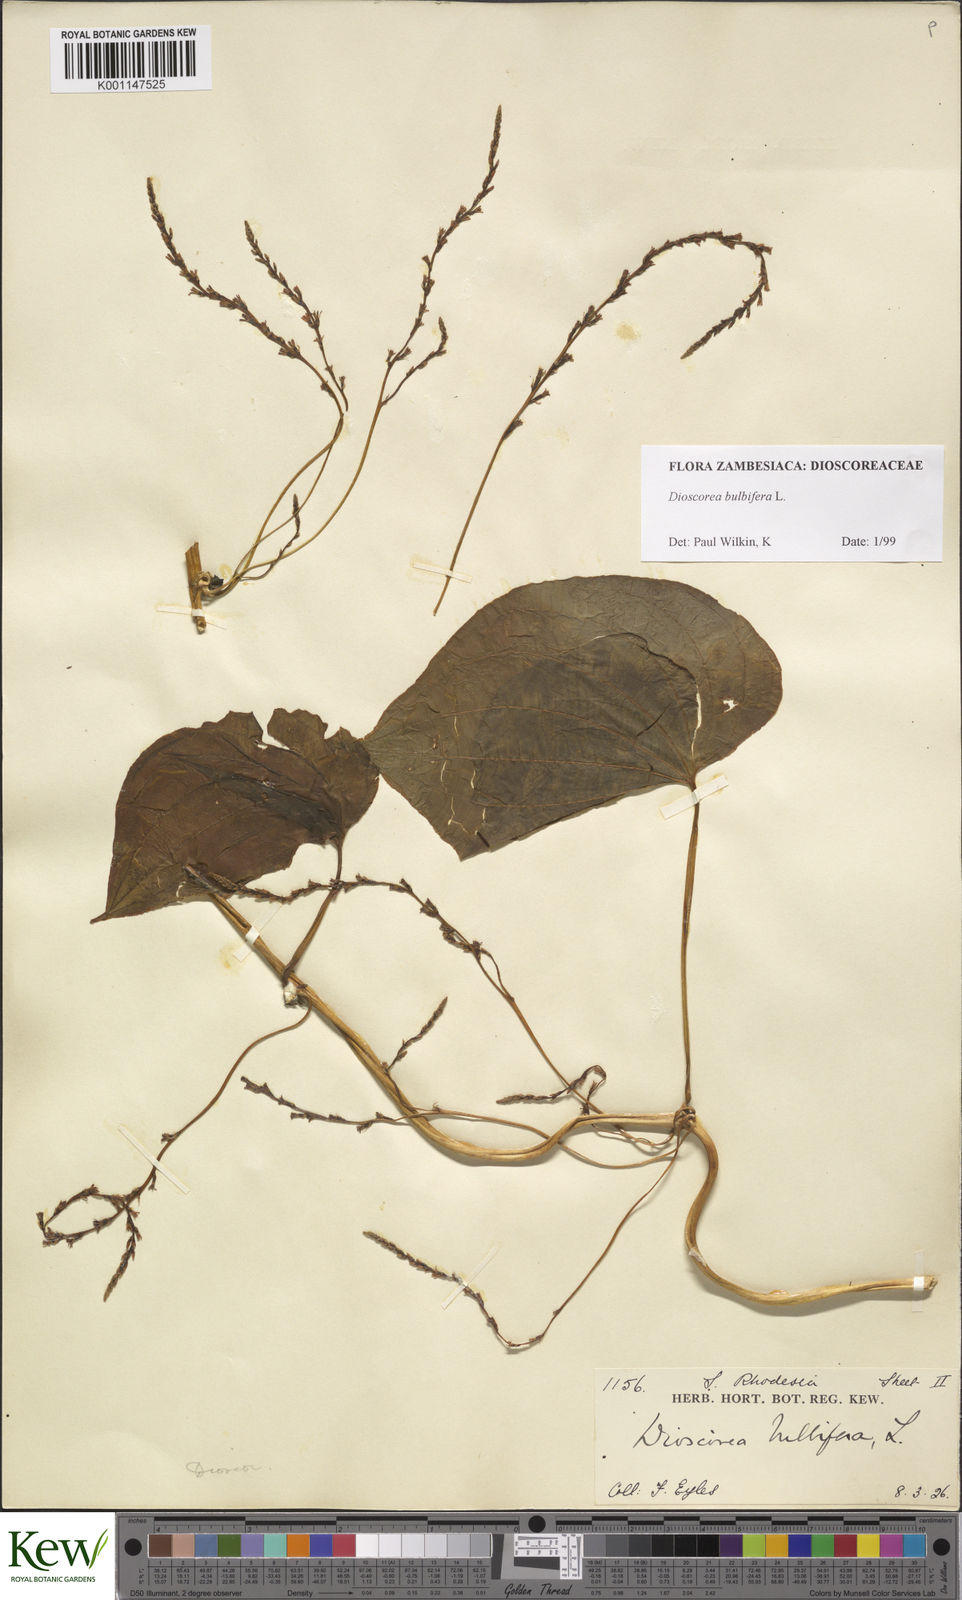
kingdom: Plantae
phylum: Tracheophyta
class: Liliopsida
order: Dioscoreales
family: Dioscoreaceae
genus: Dioscorea
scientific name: Dioscorea bulbifera
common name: Air yam
